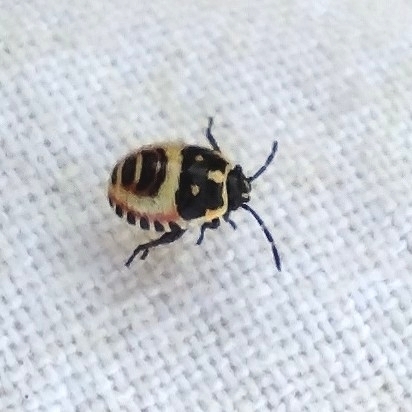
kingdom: Animalia
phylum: Arthropoda
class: Insecta
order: Hemiptera
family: Pentatomidae
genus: Eurydema
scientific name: Eurydema oleracea
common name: Cabbage bug
